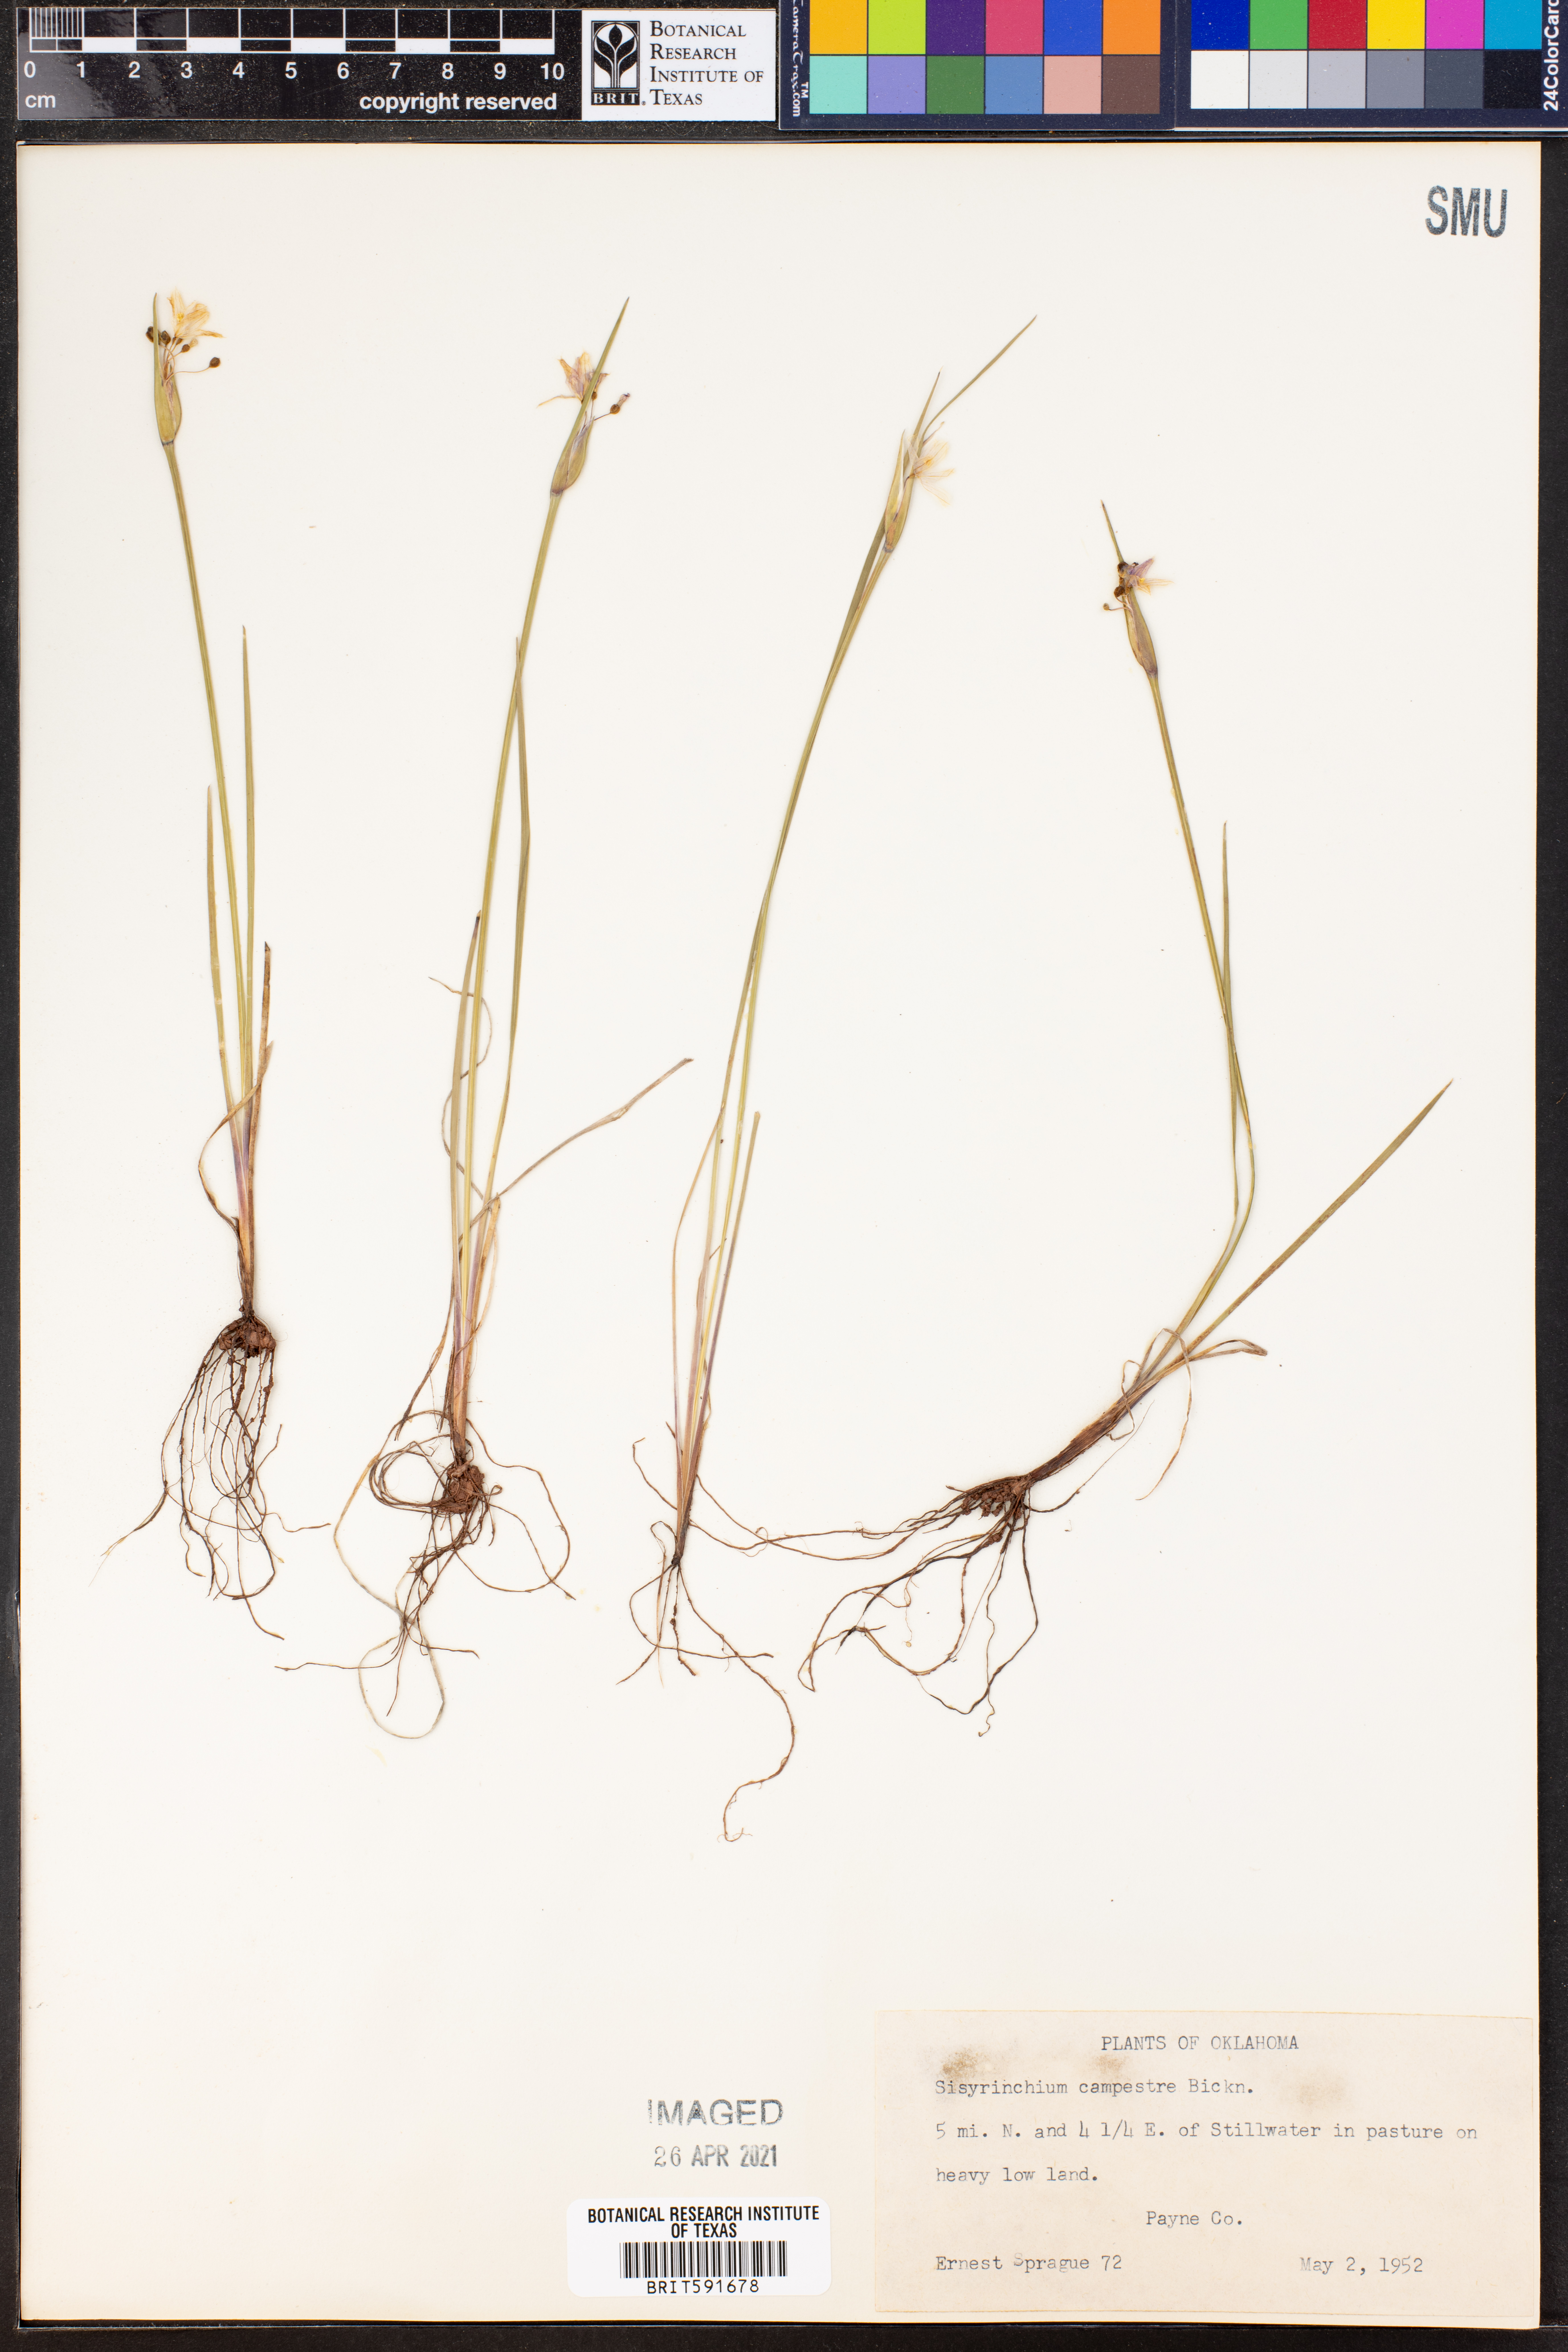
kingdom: Plantae
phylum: Tracheophyta
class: Liliopsida
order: Asparagales
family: Iridaceae
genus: Sisyrinchium
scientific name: Sisyrinchium campestre
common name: Prairie blue-eyed-grass
